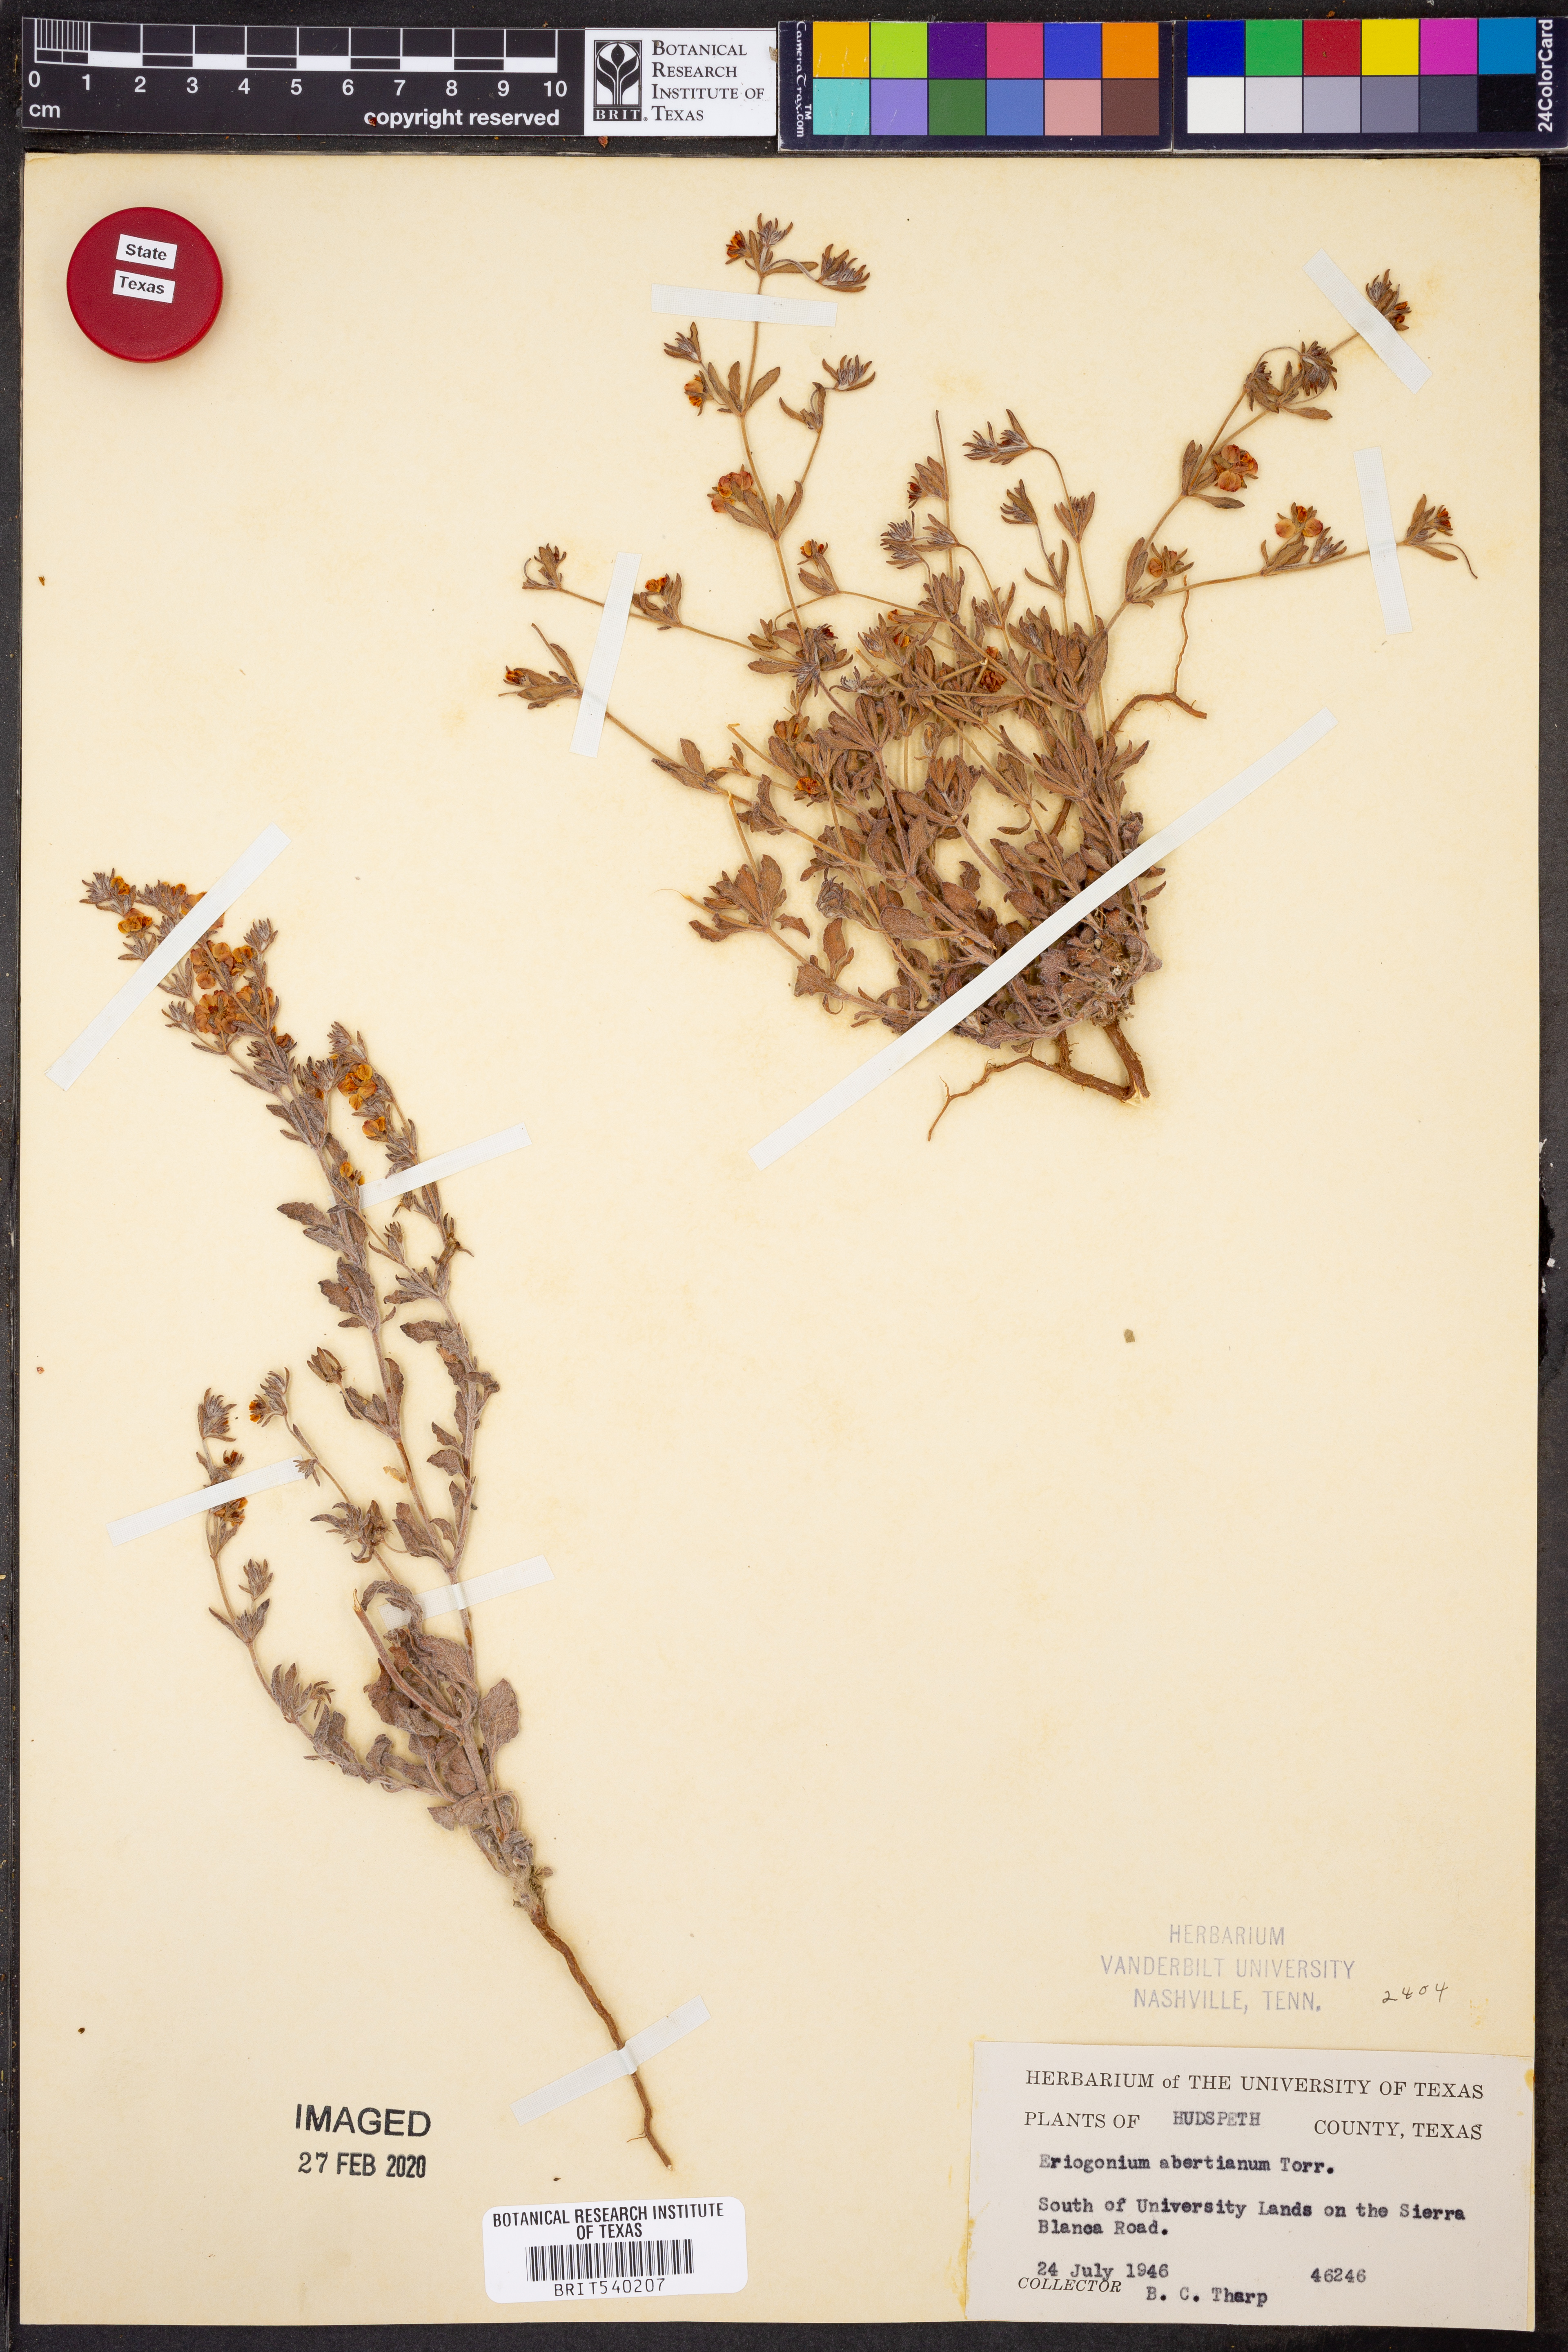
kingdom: Plantae
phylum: Tracheophyta
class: Magnoliopsida
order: Caryophyllales
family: Polygonaceae
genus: Eriogonum
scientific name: Eriogonum abertianum
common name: Abert's wild buckwheat
